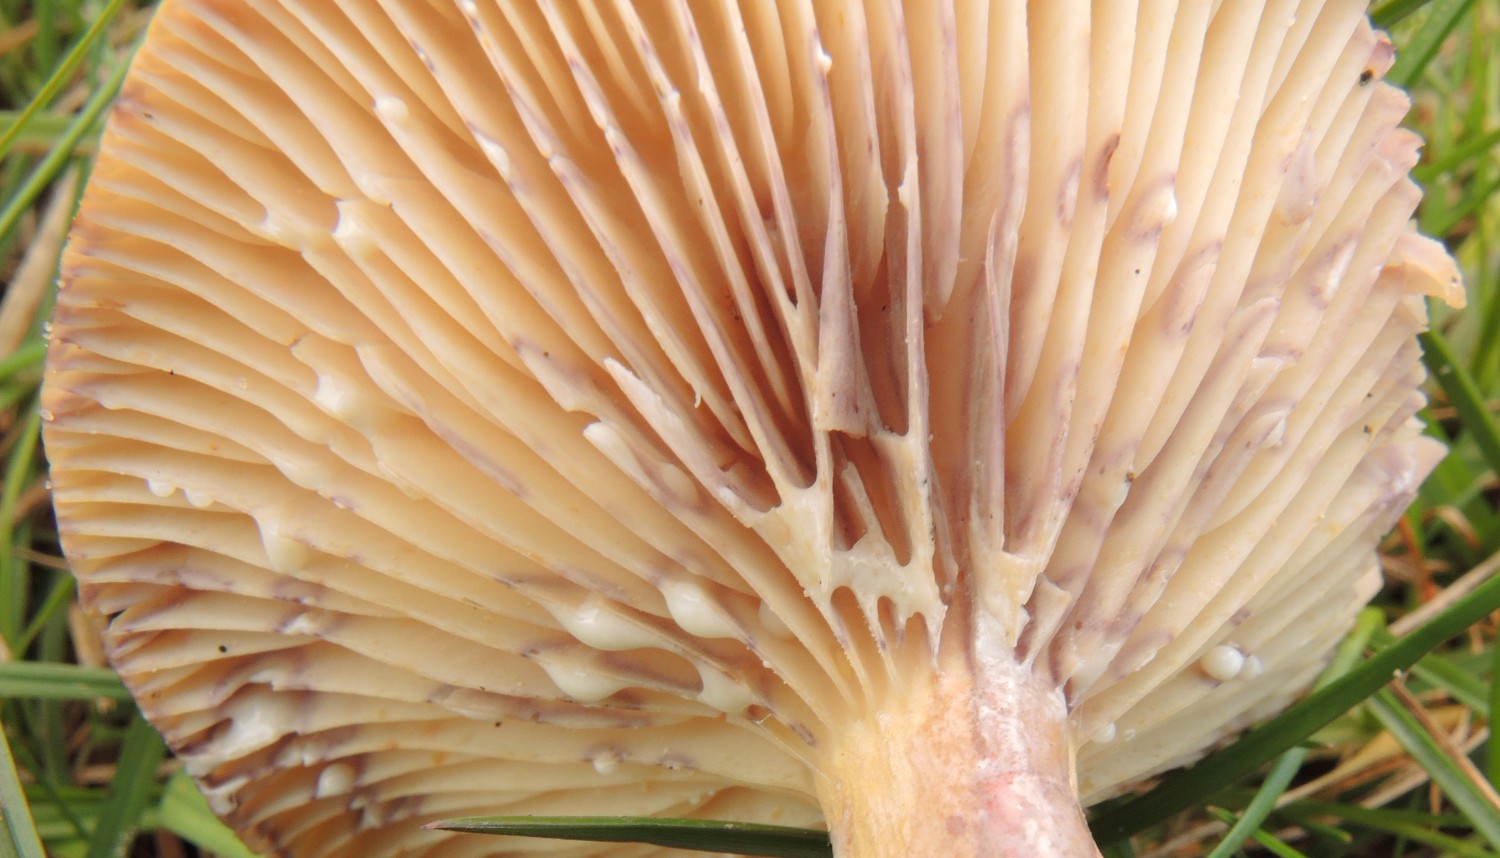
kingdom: Fungi
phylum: Basidiomycota
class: Agaricomycetes
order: Russulales
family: Russulaceae
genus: Lactarius
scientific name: Lactarius aspideus
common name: pile-mælkehat
